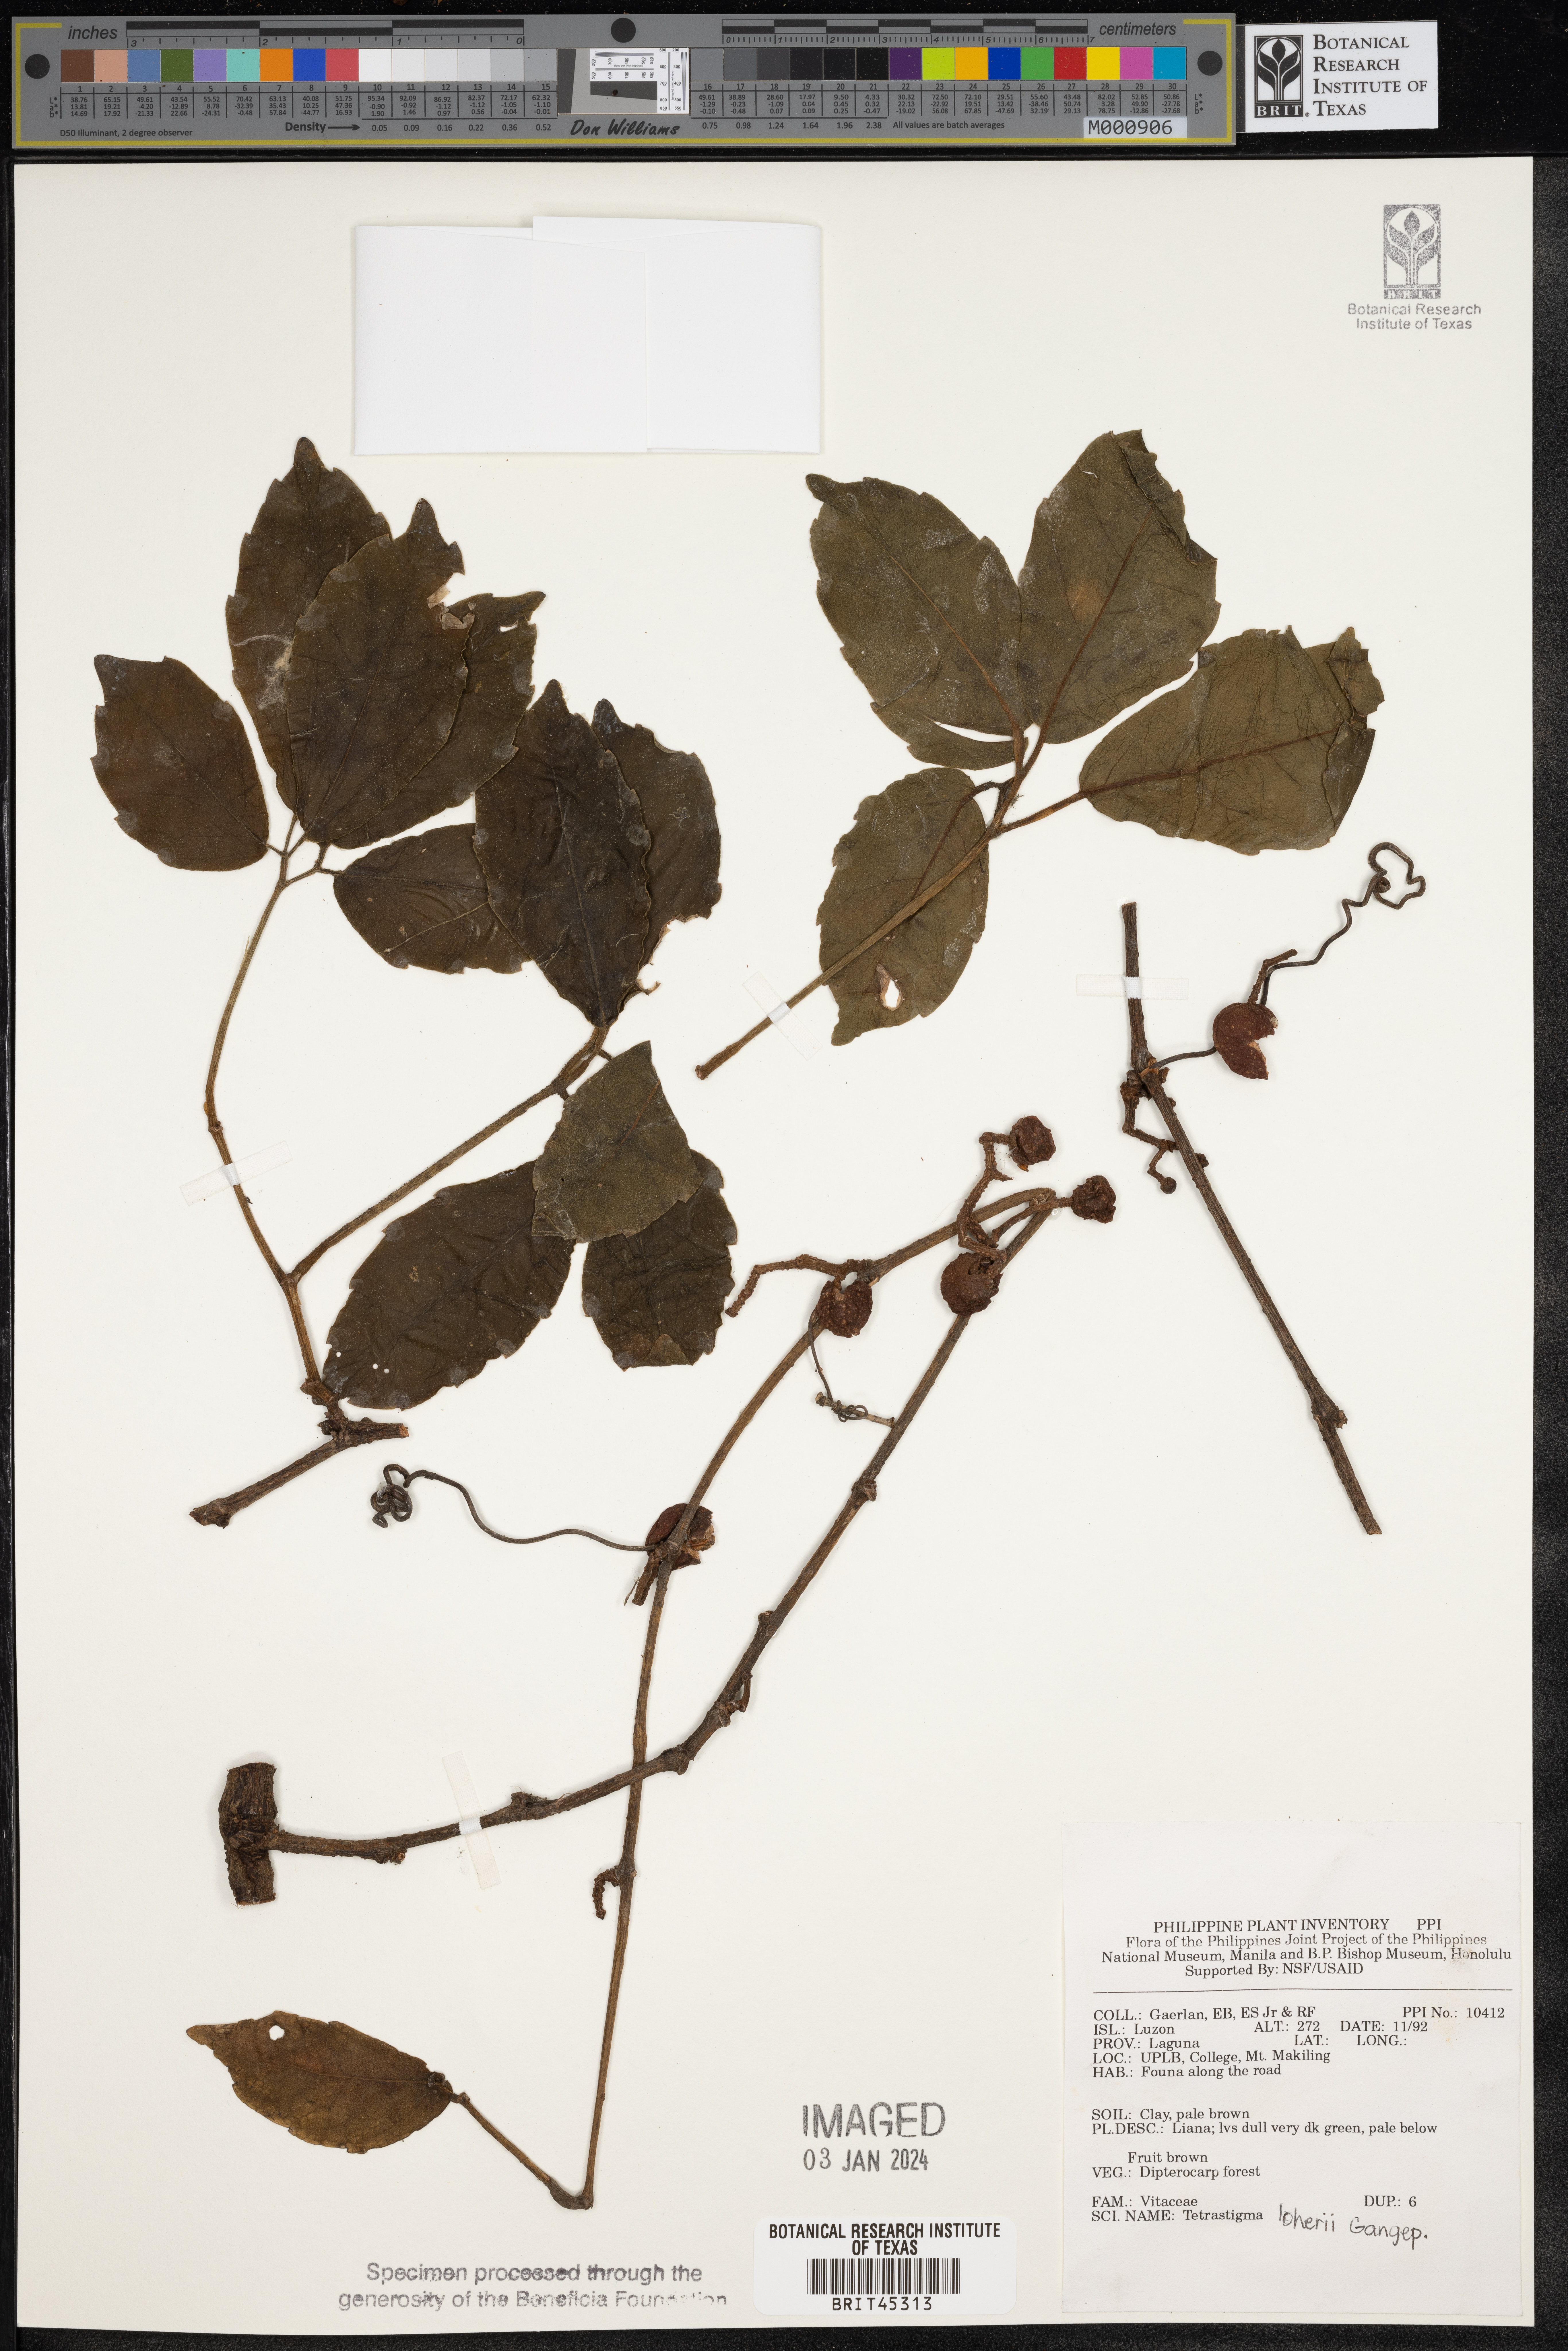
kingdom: Plantae
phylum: Tracheophyta
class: Magnoliopsida
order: Vitales
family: Vitaceae
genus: Tetrastigma
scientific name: Tetrastigma loheri
